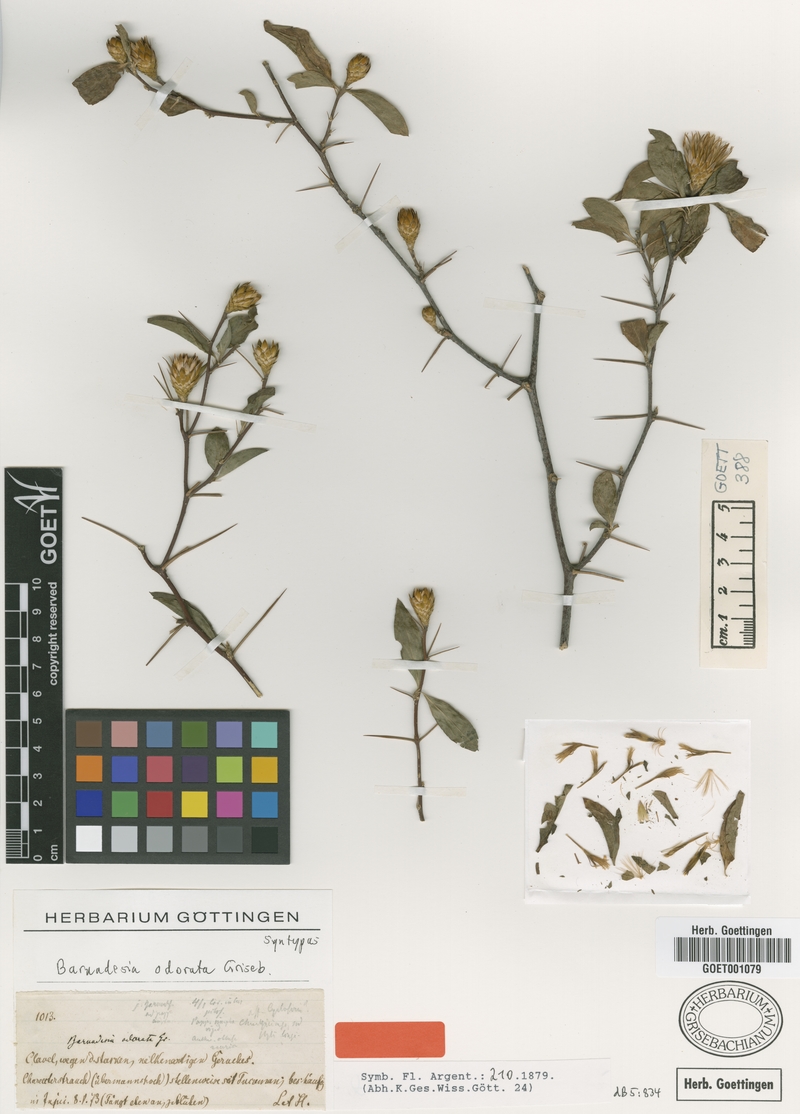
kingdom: Plantae
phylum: Tracheophyta
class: Magnoliopsida
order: Asterales
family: Asteraceae
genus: Barnadesia
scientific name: Barnadesia odorata
